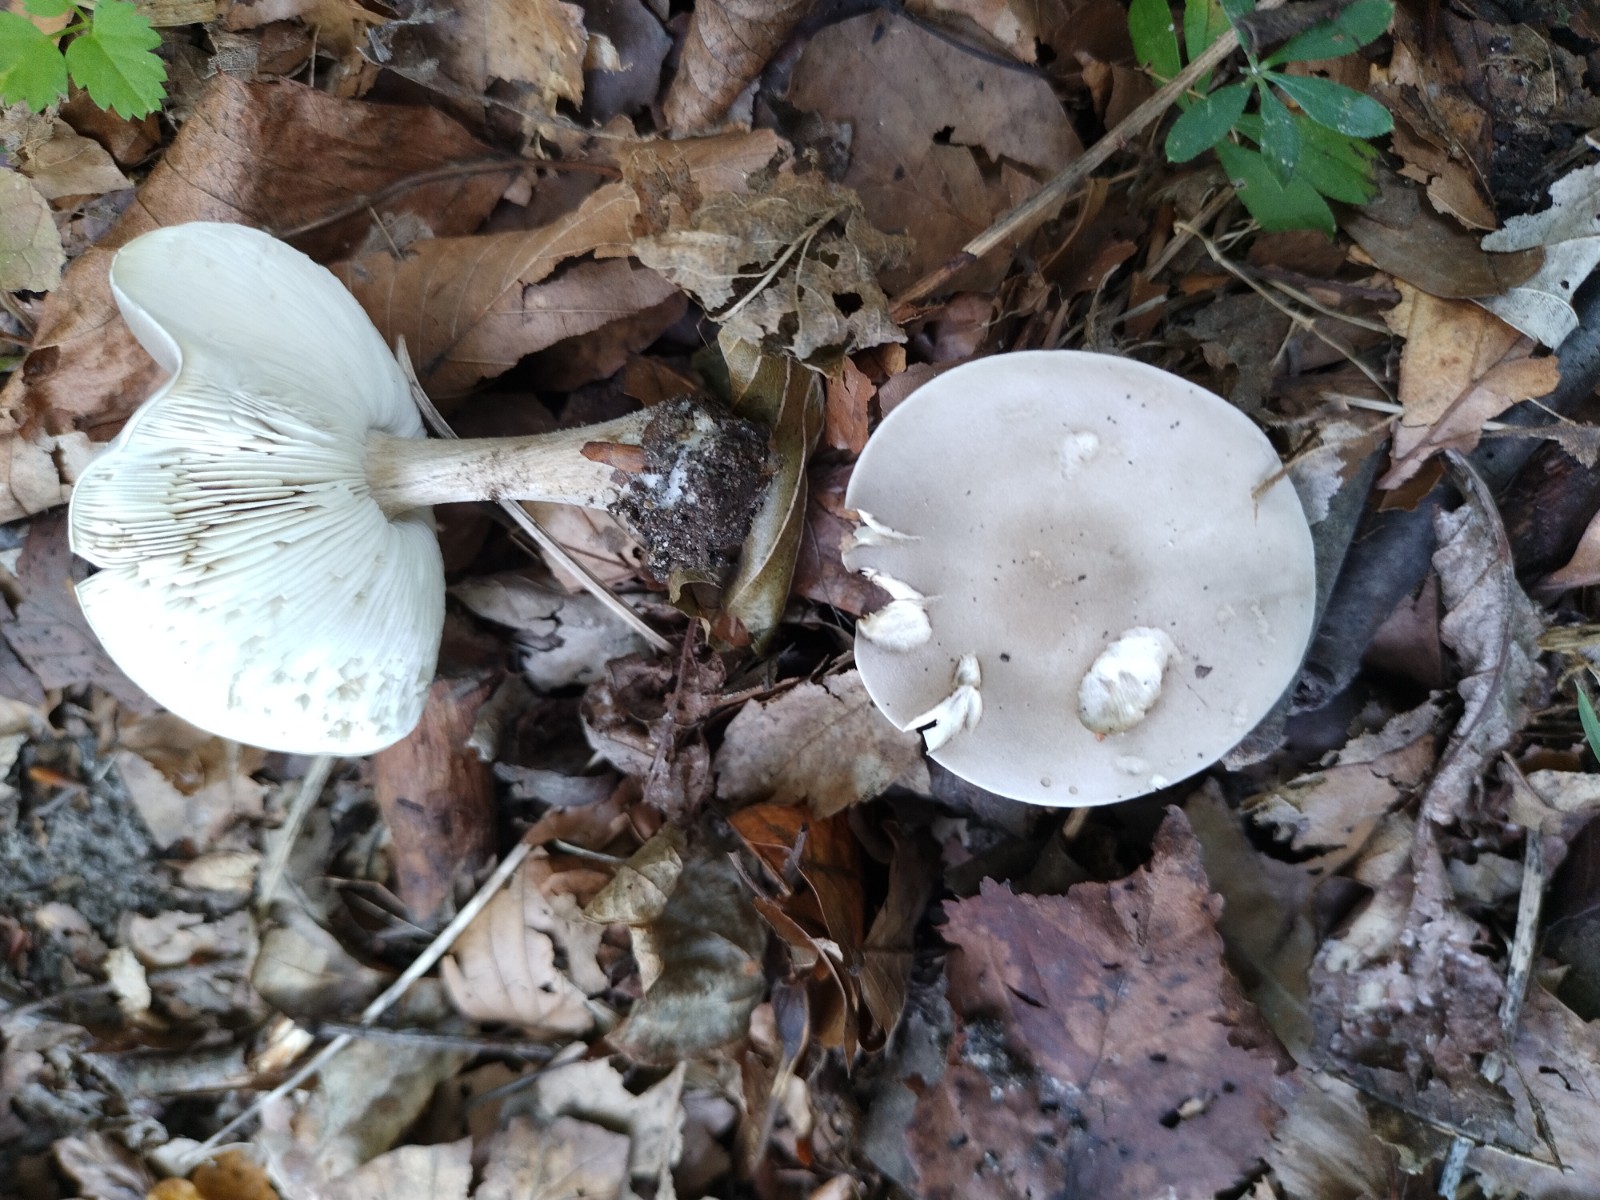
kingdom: Fungi
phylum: Basidiomycota
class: Agaricomycetes
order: Agaricales
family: Tricholomataceae
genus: Melanoleuca
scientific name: Melanoleuca
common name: munkehat
